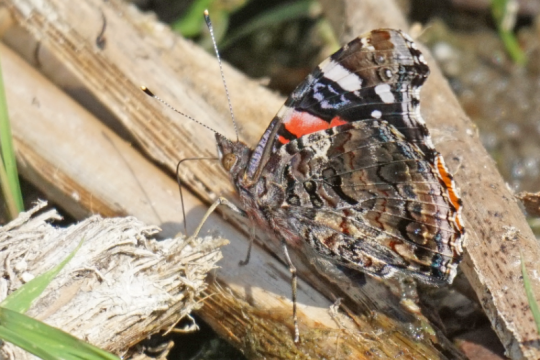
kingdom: Animalia
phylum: Arthropoda
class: Insecta
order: Lepidoptera
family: Nymphalidae
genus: Vanessa
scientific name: Vanessa atalanta
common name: Red Admiral
